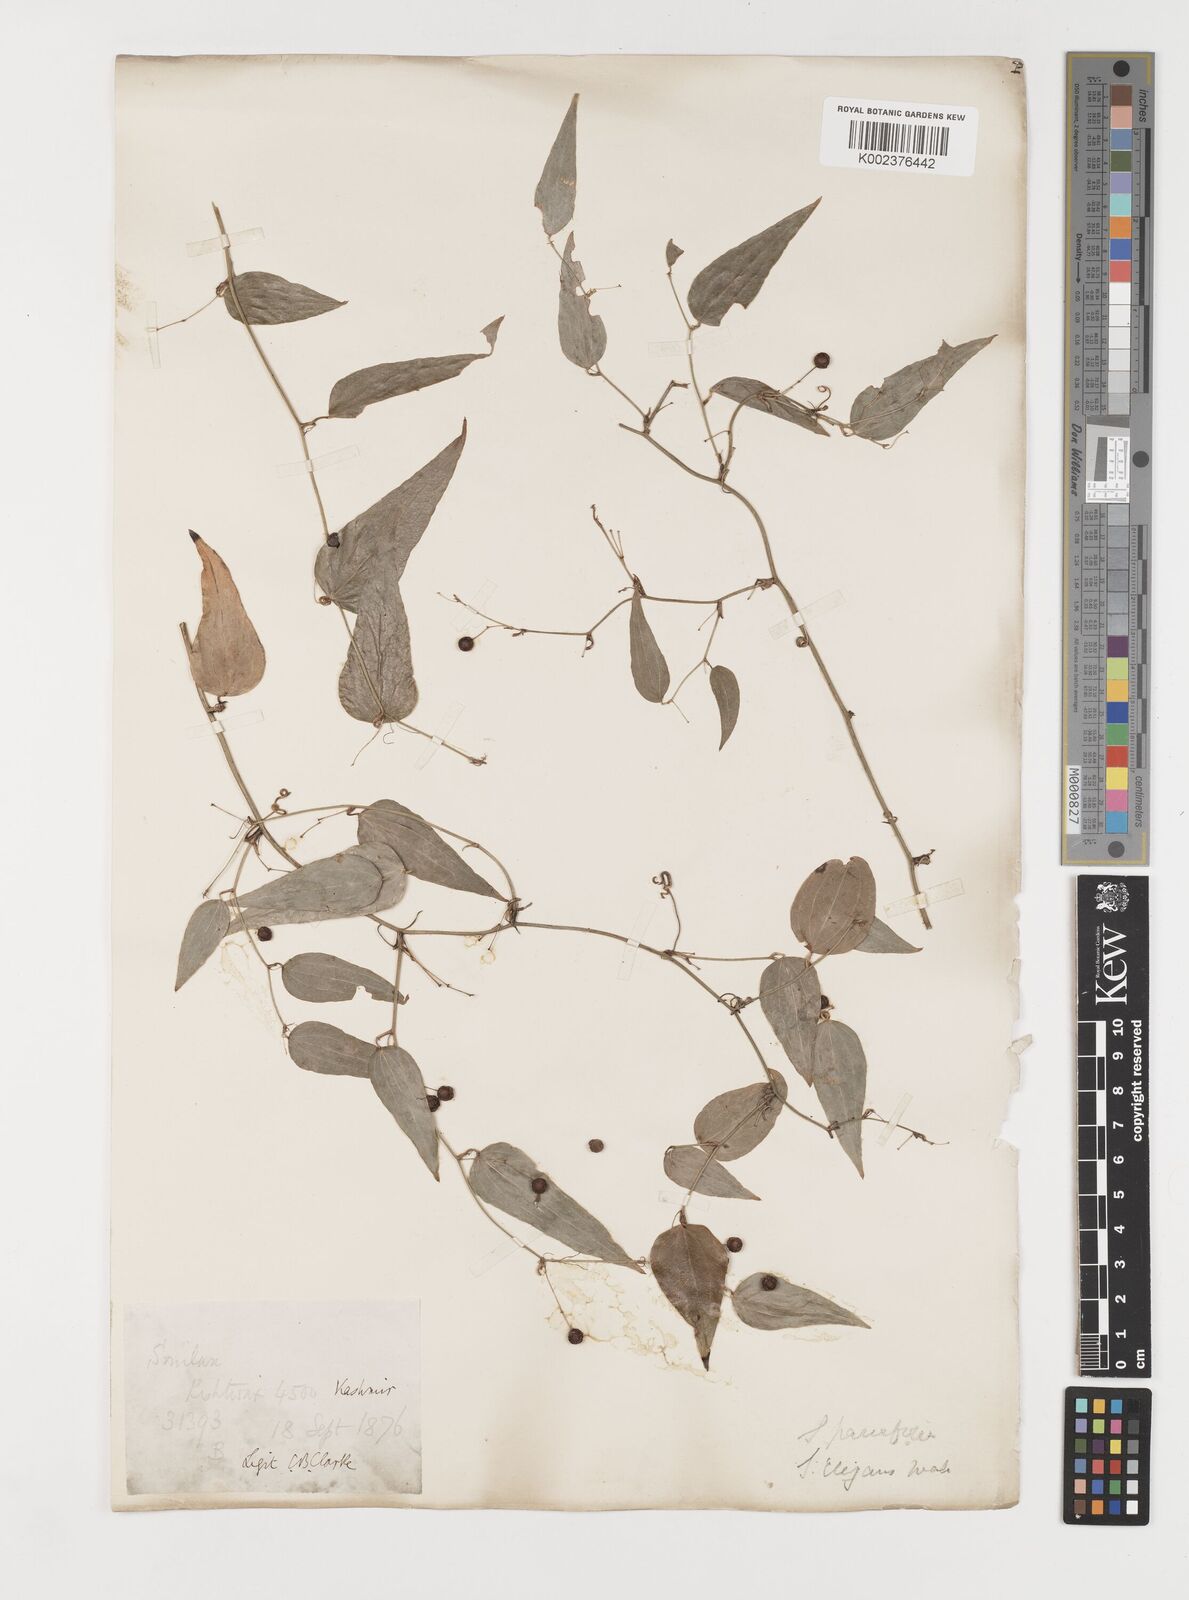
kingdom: Plantae
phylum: Tracheophyta
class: Liliopsida
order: Liliales
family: Smilacaceae
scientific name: Smilacaceae
